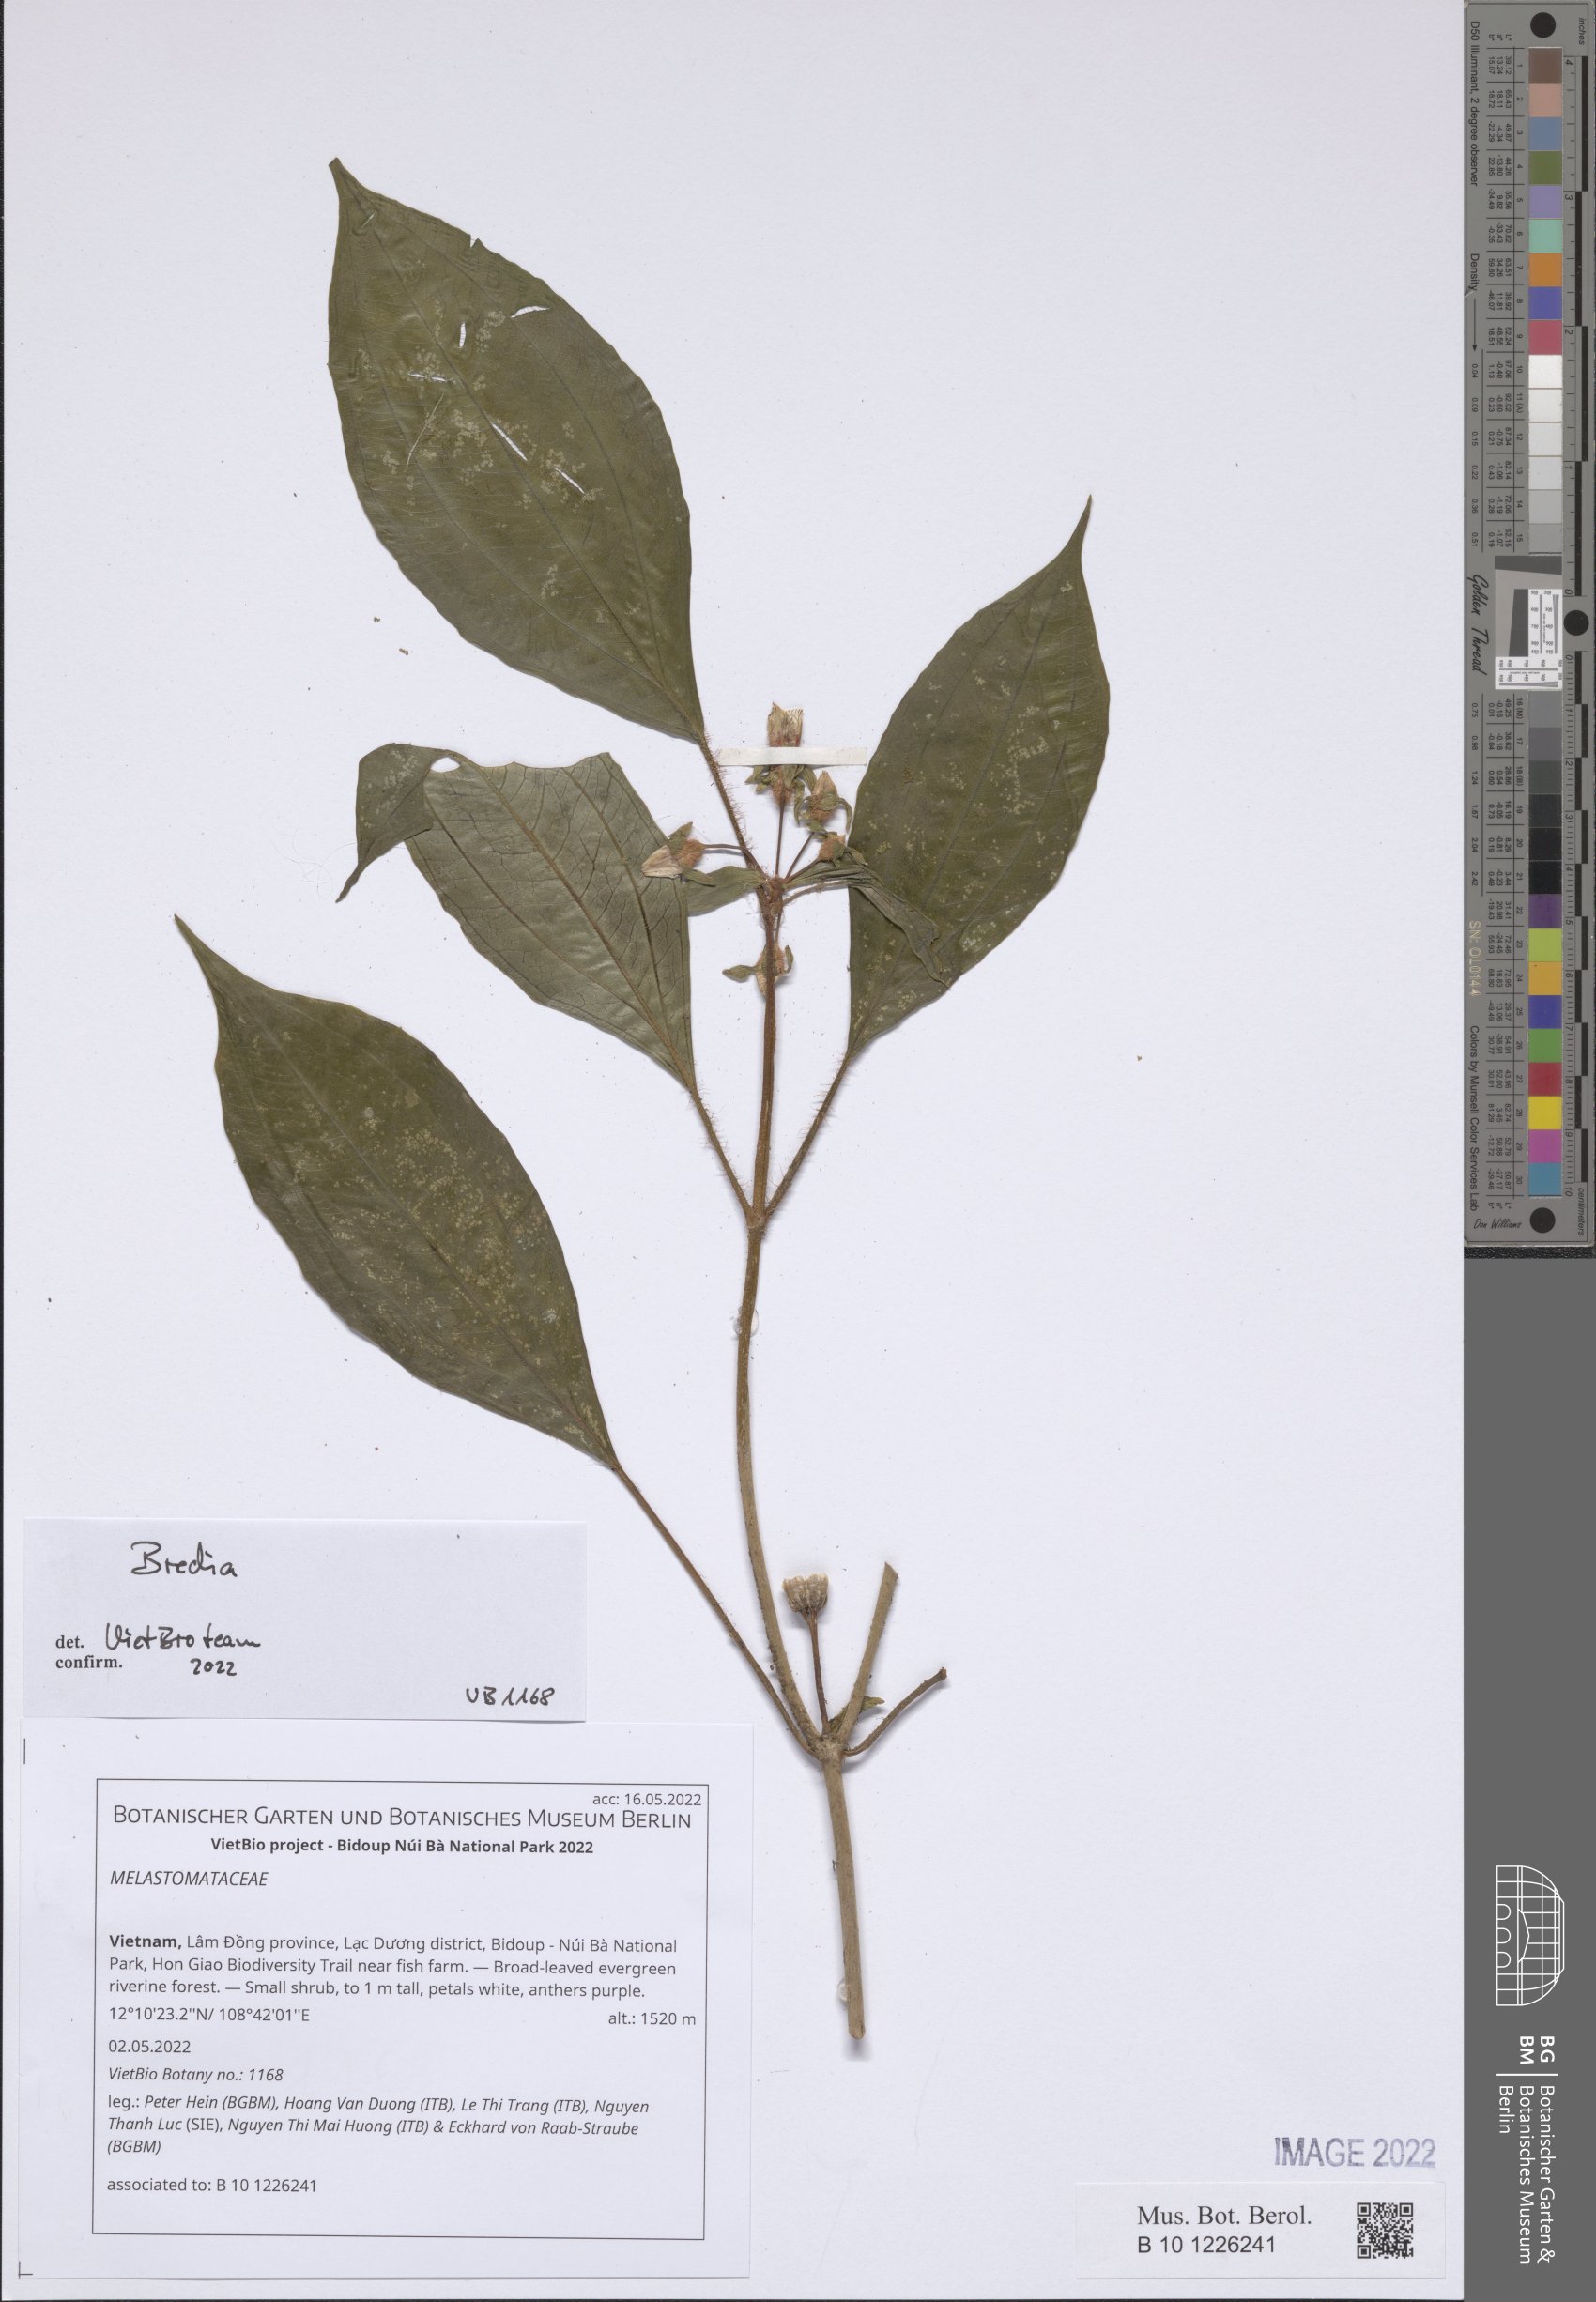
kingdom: Plantae
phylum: Tracheophyta
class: Magnoliopsida
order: Myrtales
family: Melastomataceae
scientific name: Melastomataceae
